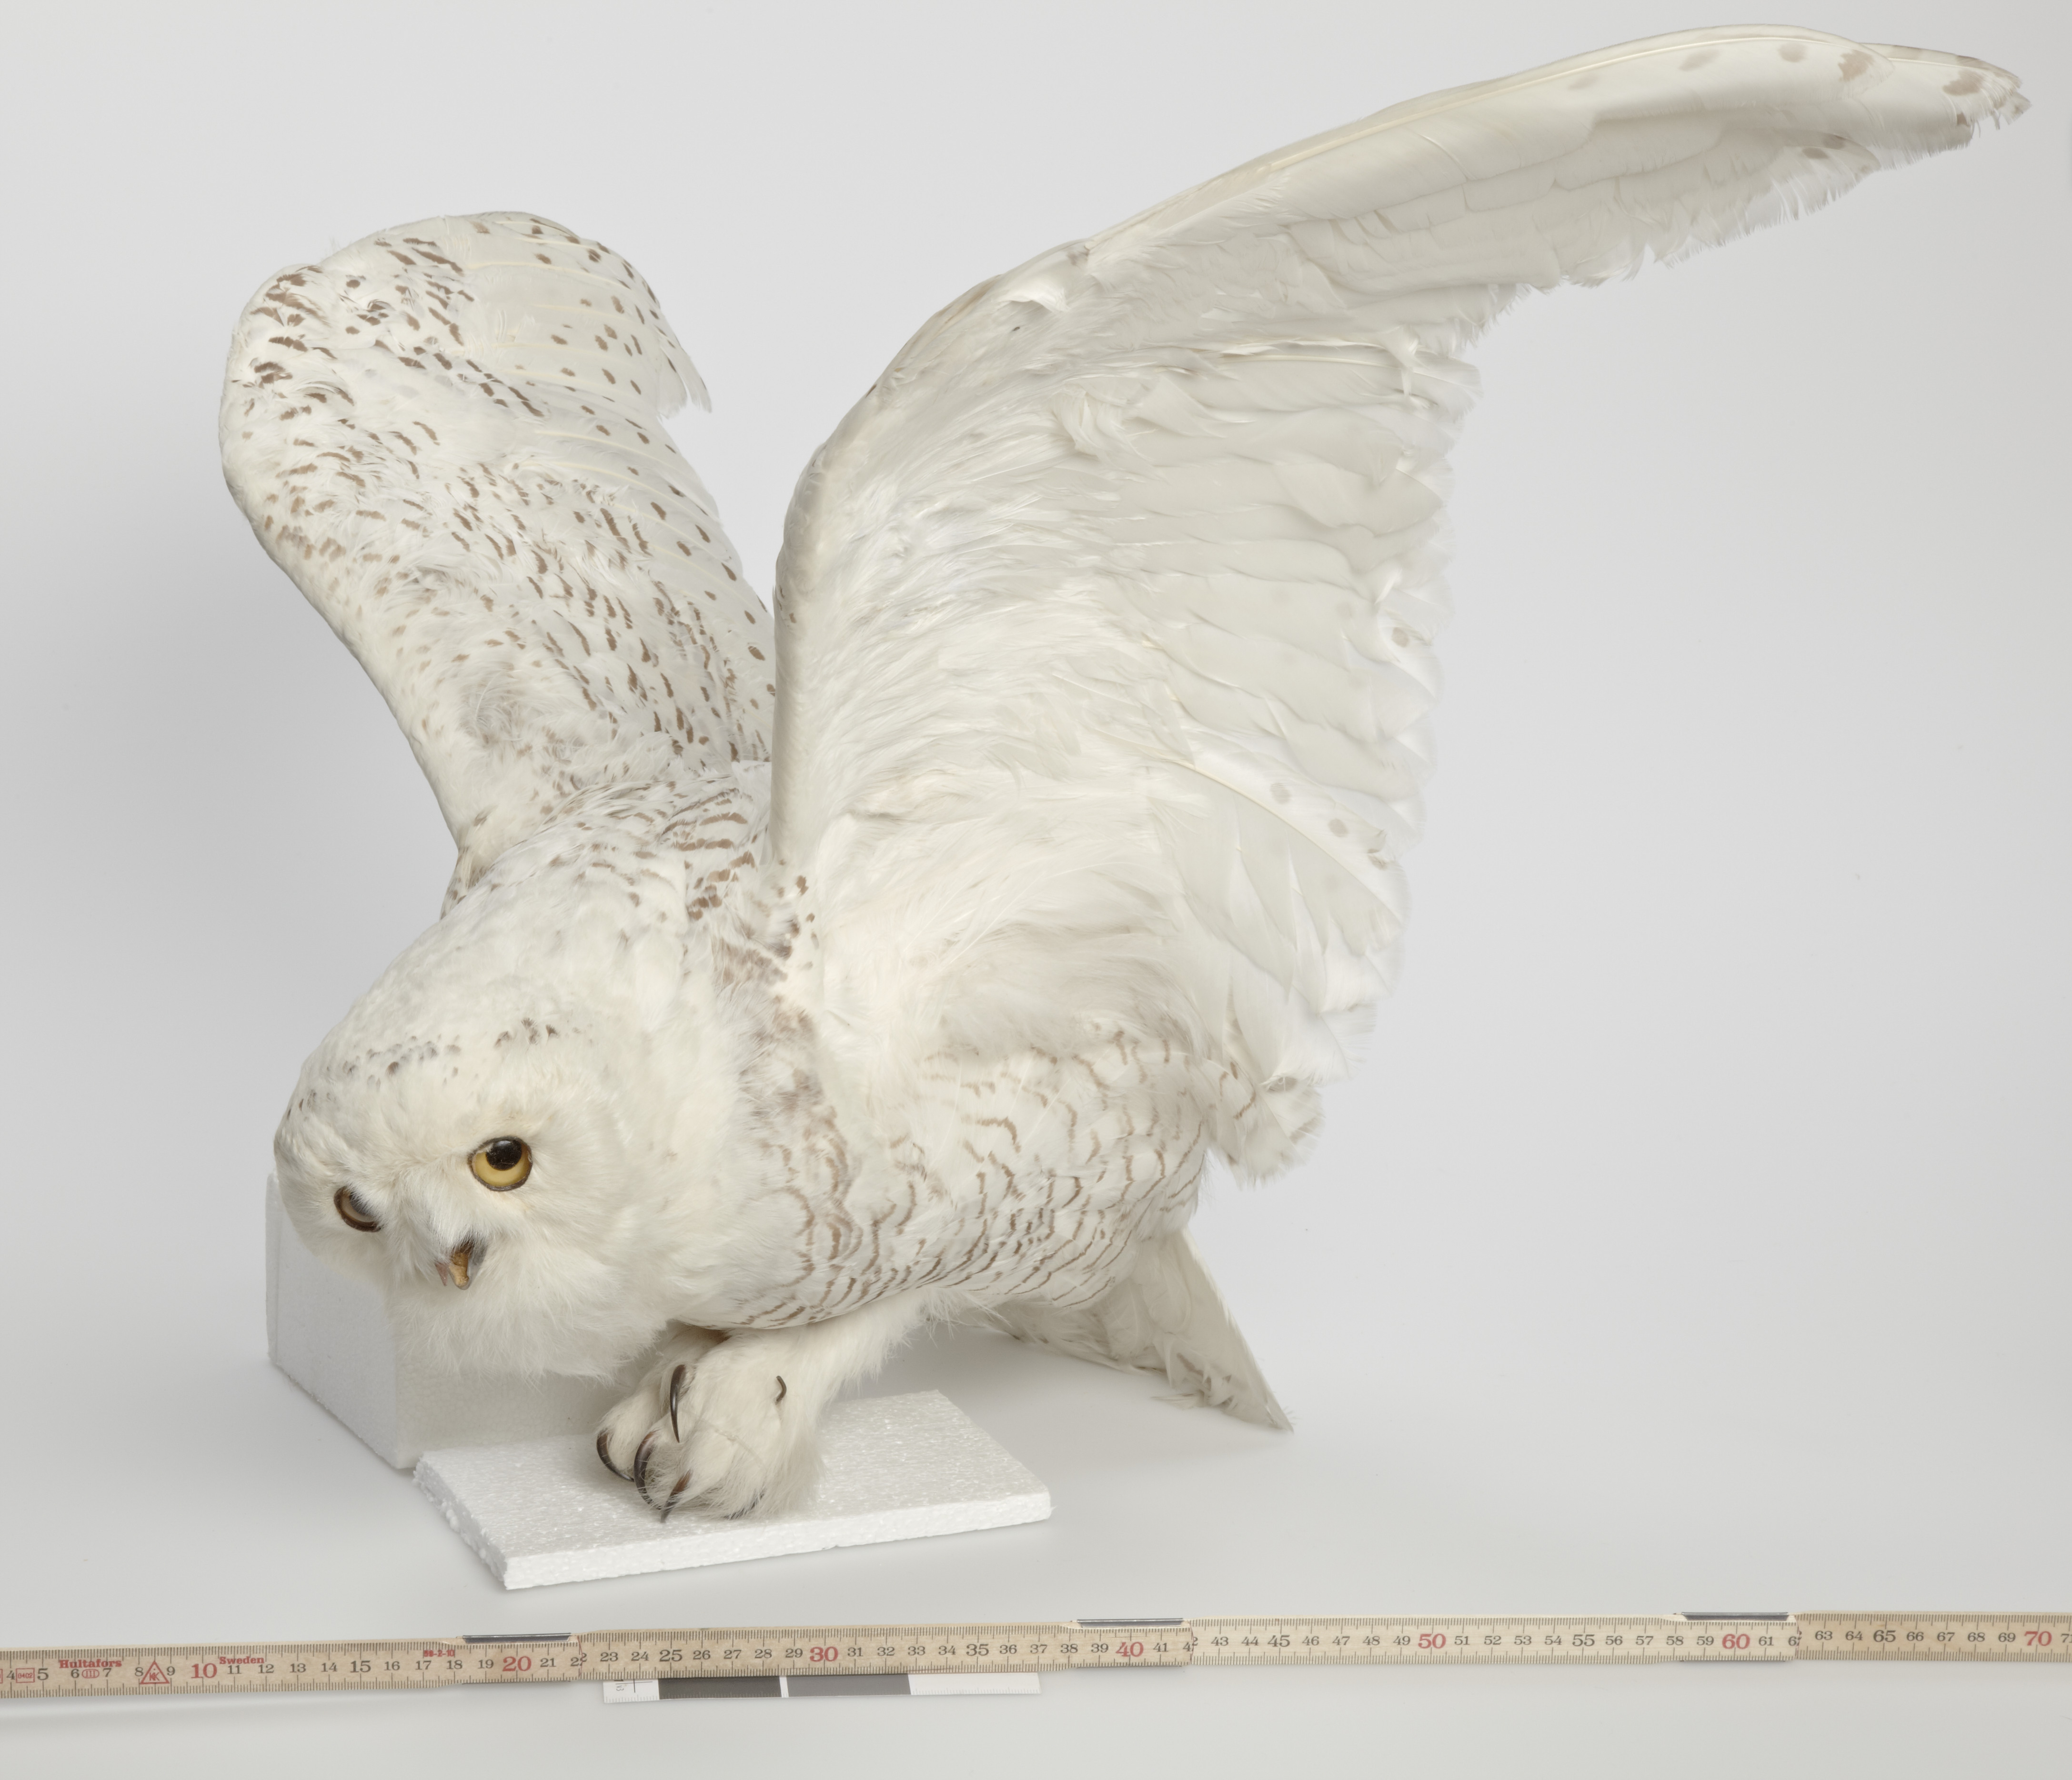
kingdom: Animalia
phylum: Chordata
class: Aves
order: Strigiformes
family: Strigidae
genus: Bubo
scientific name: Bubo scandiacus
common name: Snowy owl
